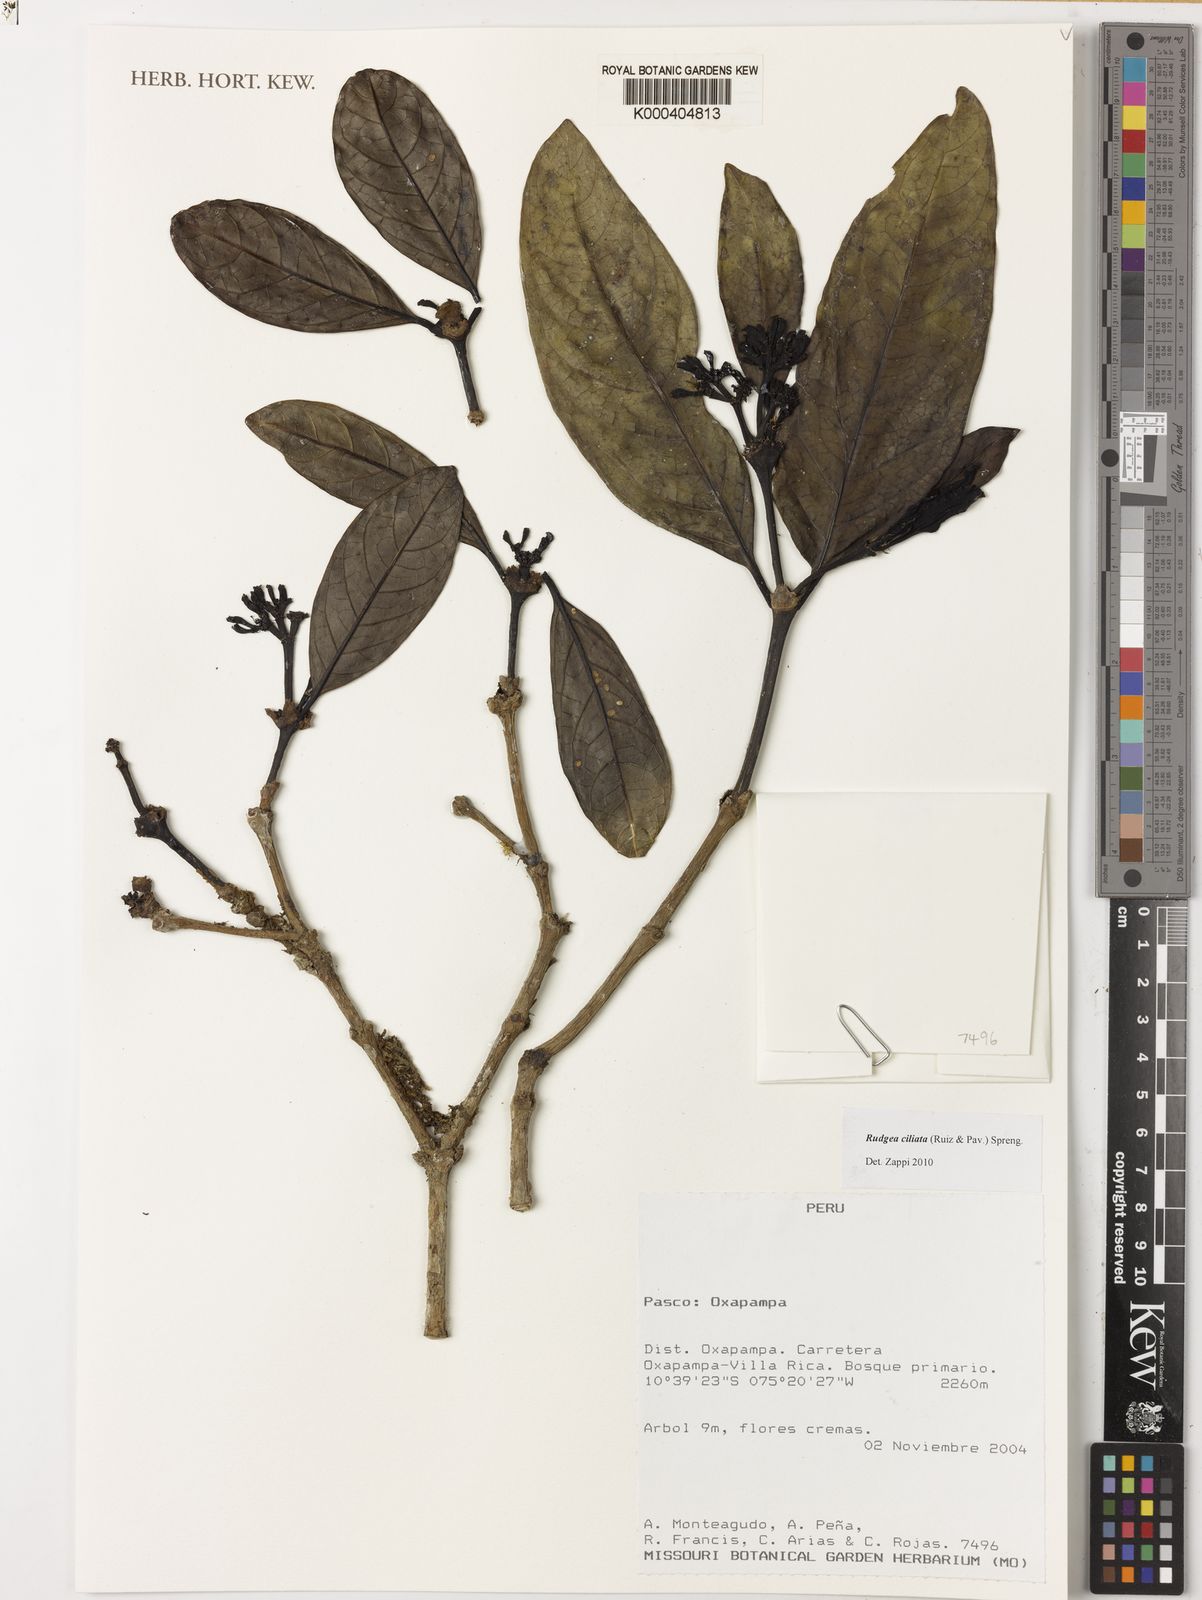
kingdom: Plantae
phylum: Tracheophyta
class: Magnoliopsida
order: Gentianales
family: Rubiaceae
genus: Rudgea
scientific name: Rudgea ciliata
